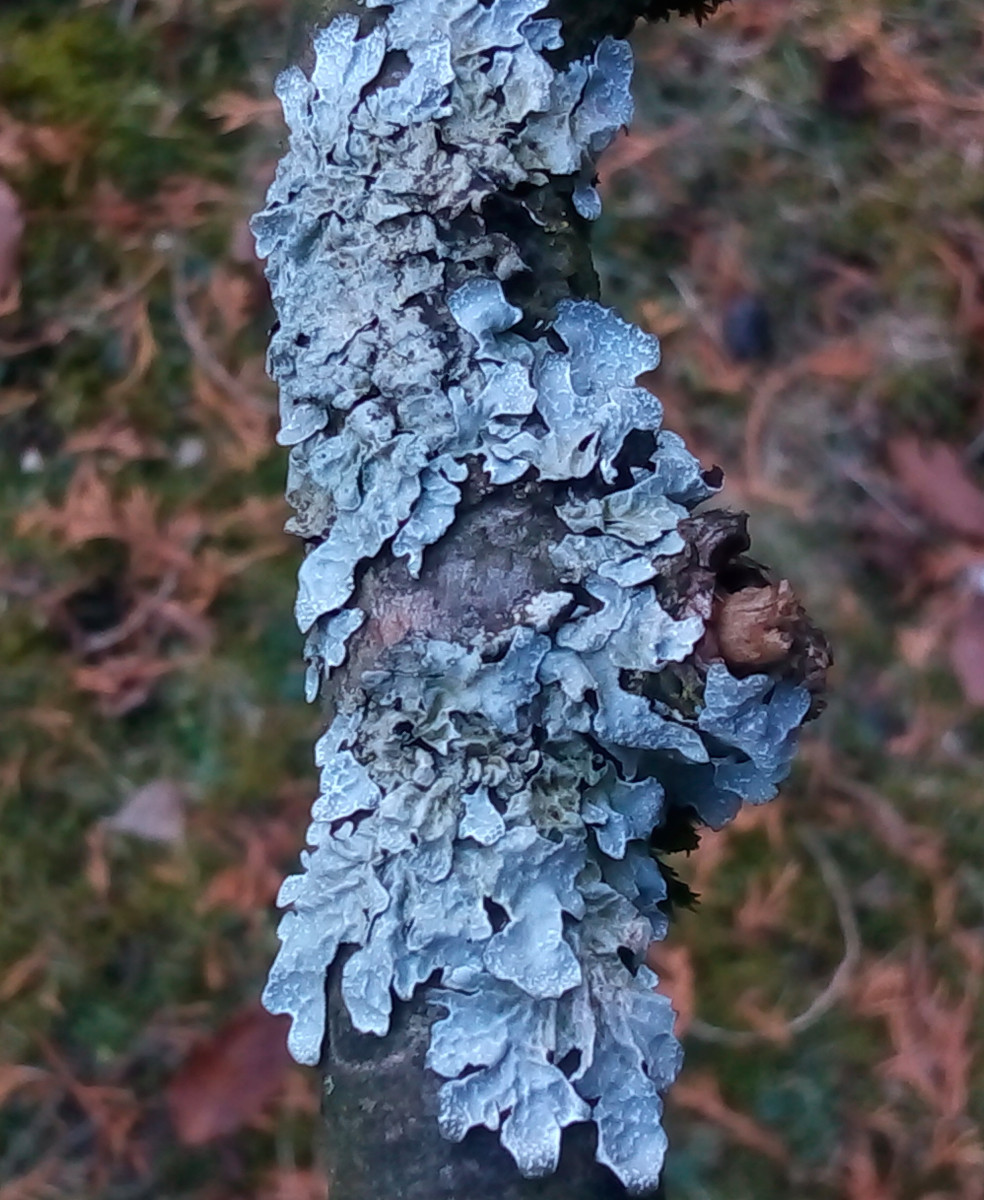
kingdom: Fungi
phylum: Ascomycota
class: Lecanoromycetes
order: Lecanorales
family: Parmeliaceae
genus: Parmelia
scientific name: Parmelia sulcata
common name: rynket skållav
